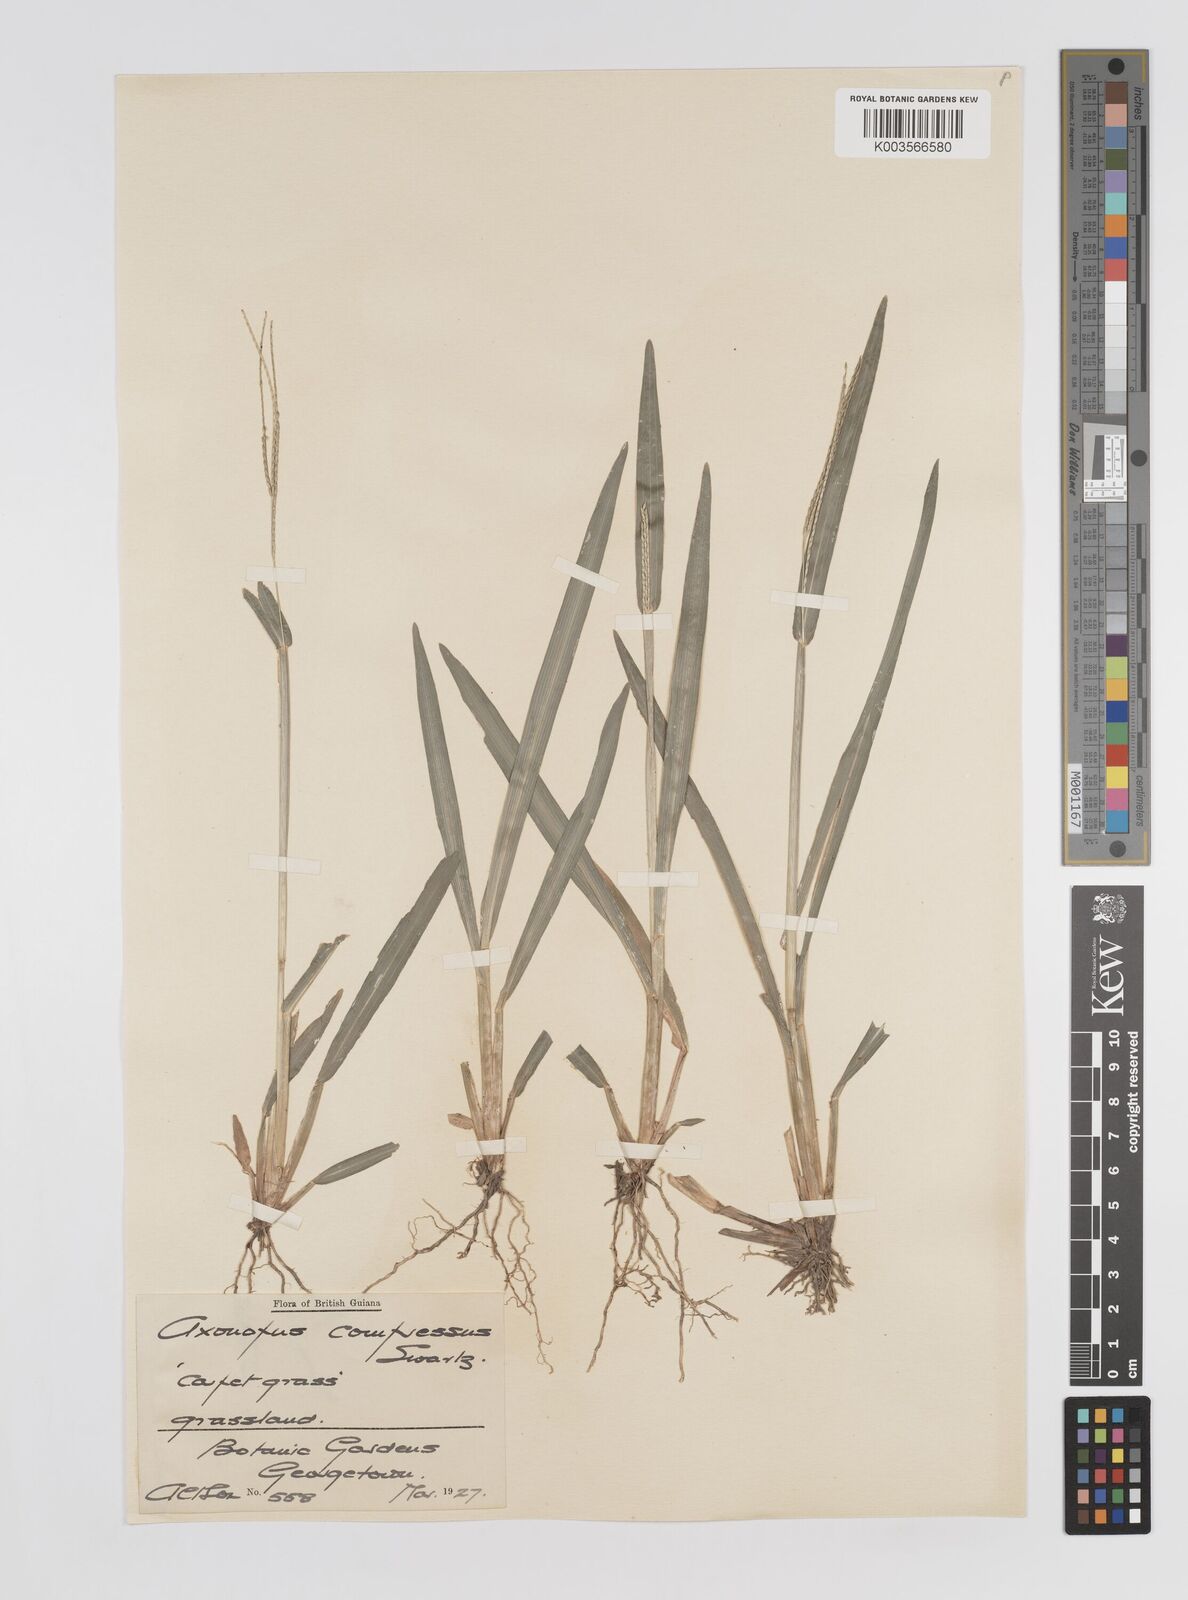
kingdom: Plantae
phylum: Tracheophyta
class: Liliopsida
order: Poales
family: Poaceae
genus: Axonopus
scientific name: Axonopus compressus
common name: American carpet grass
